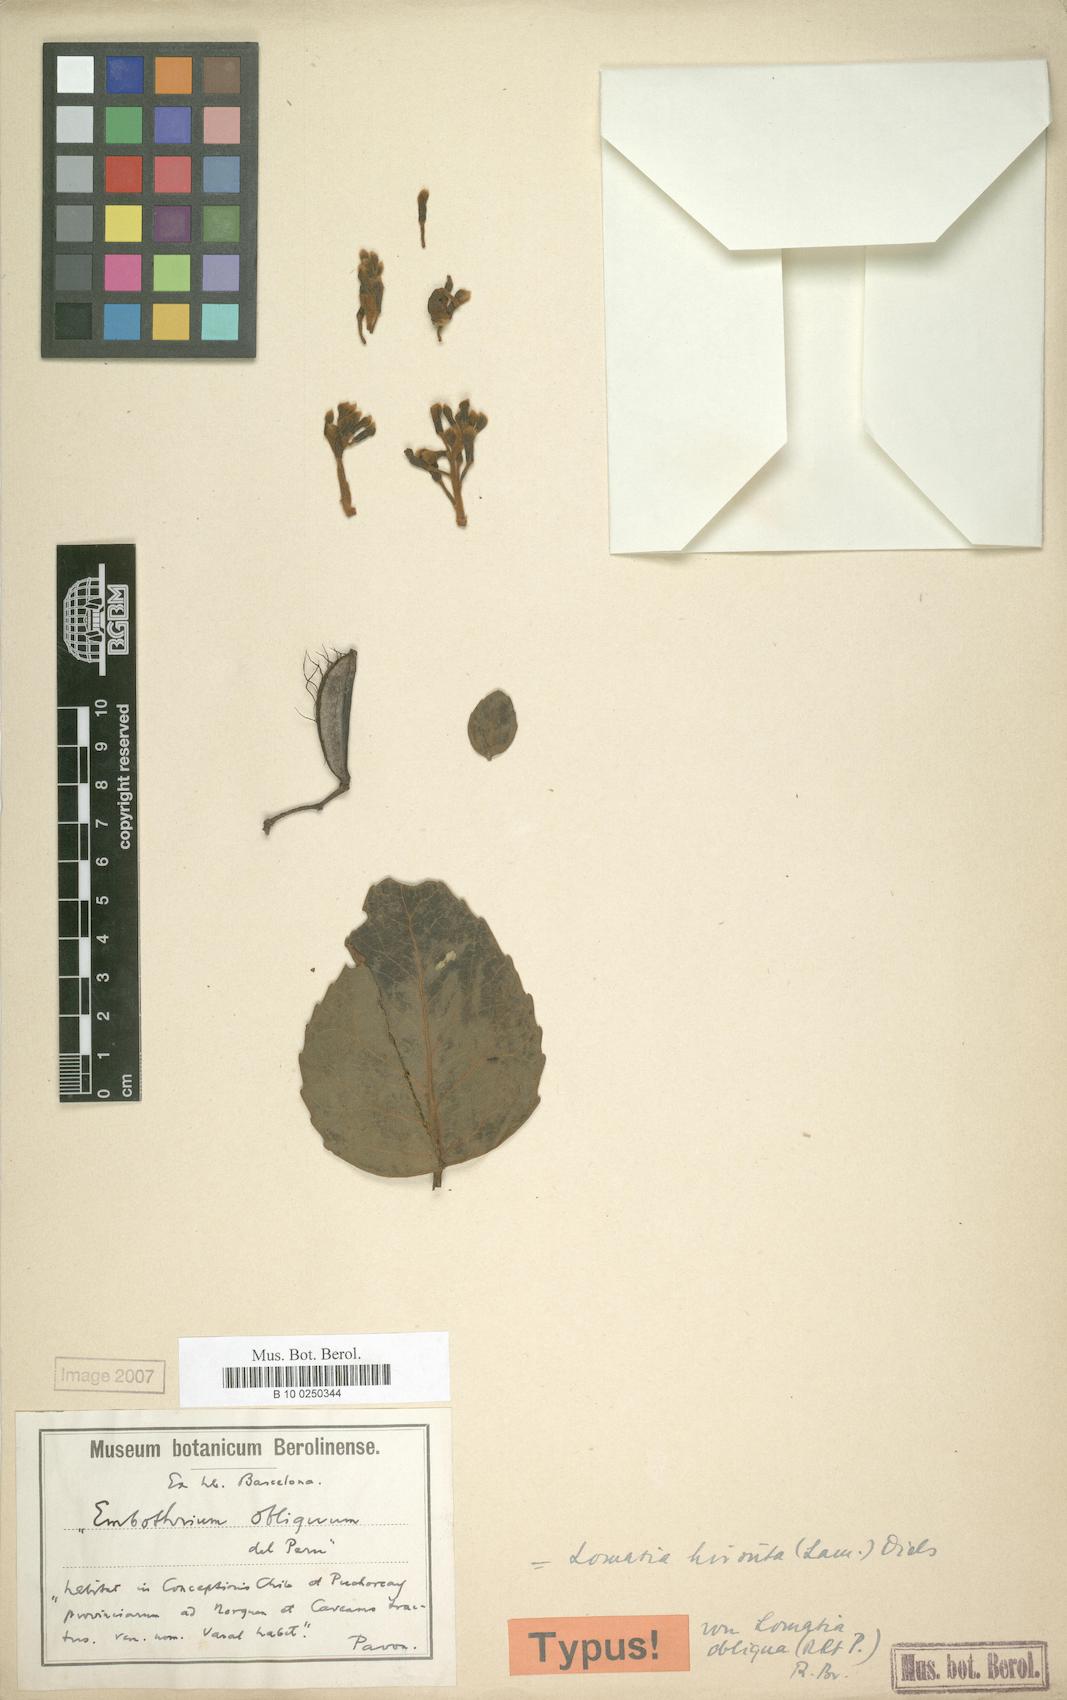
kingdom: Plantae
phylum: Tracheophyta
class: Magnoliopsida
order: Proteales
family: Proteaceae
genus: Lomatia
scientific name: Lomatia hirsuta
